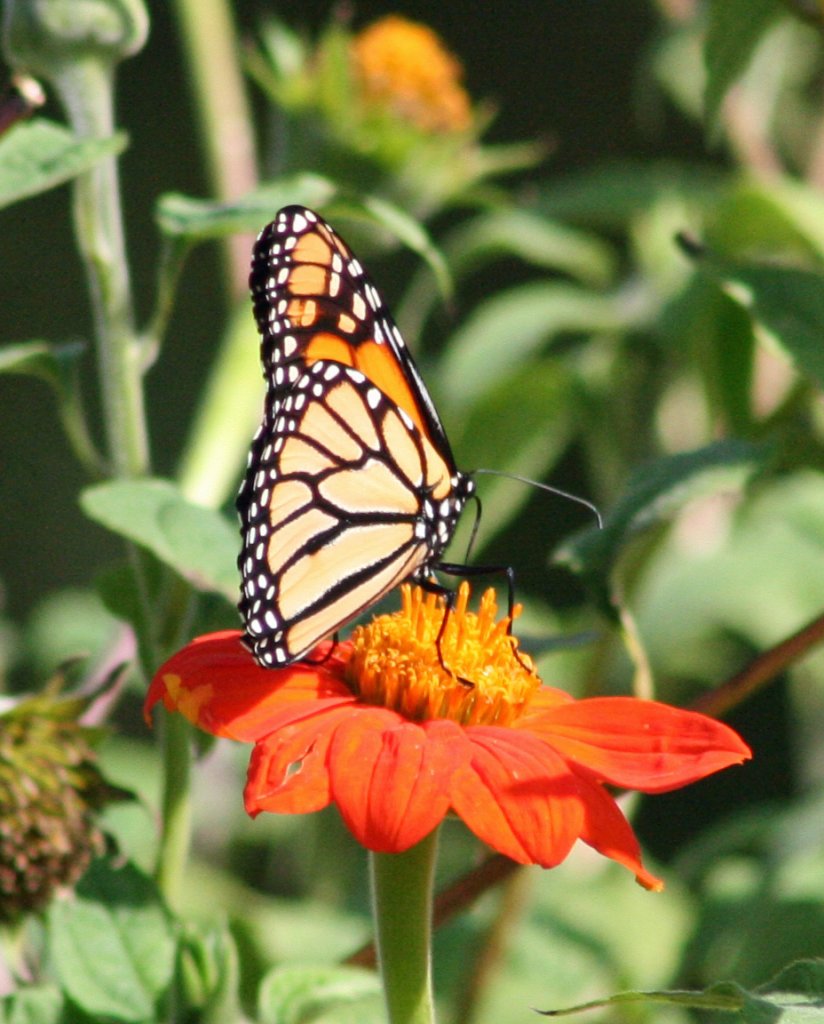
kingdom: Animalia
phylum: Arthropoda
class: Insecta
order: Lepidoptera
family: Nymphalidae
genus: Danaus
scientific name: Danaus plexippus
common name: Monarch
